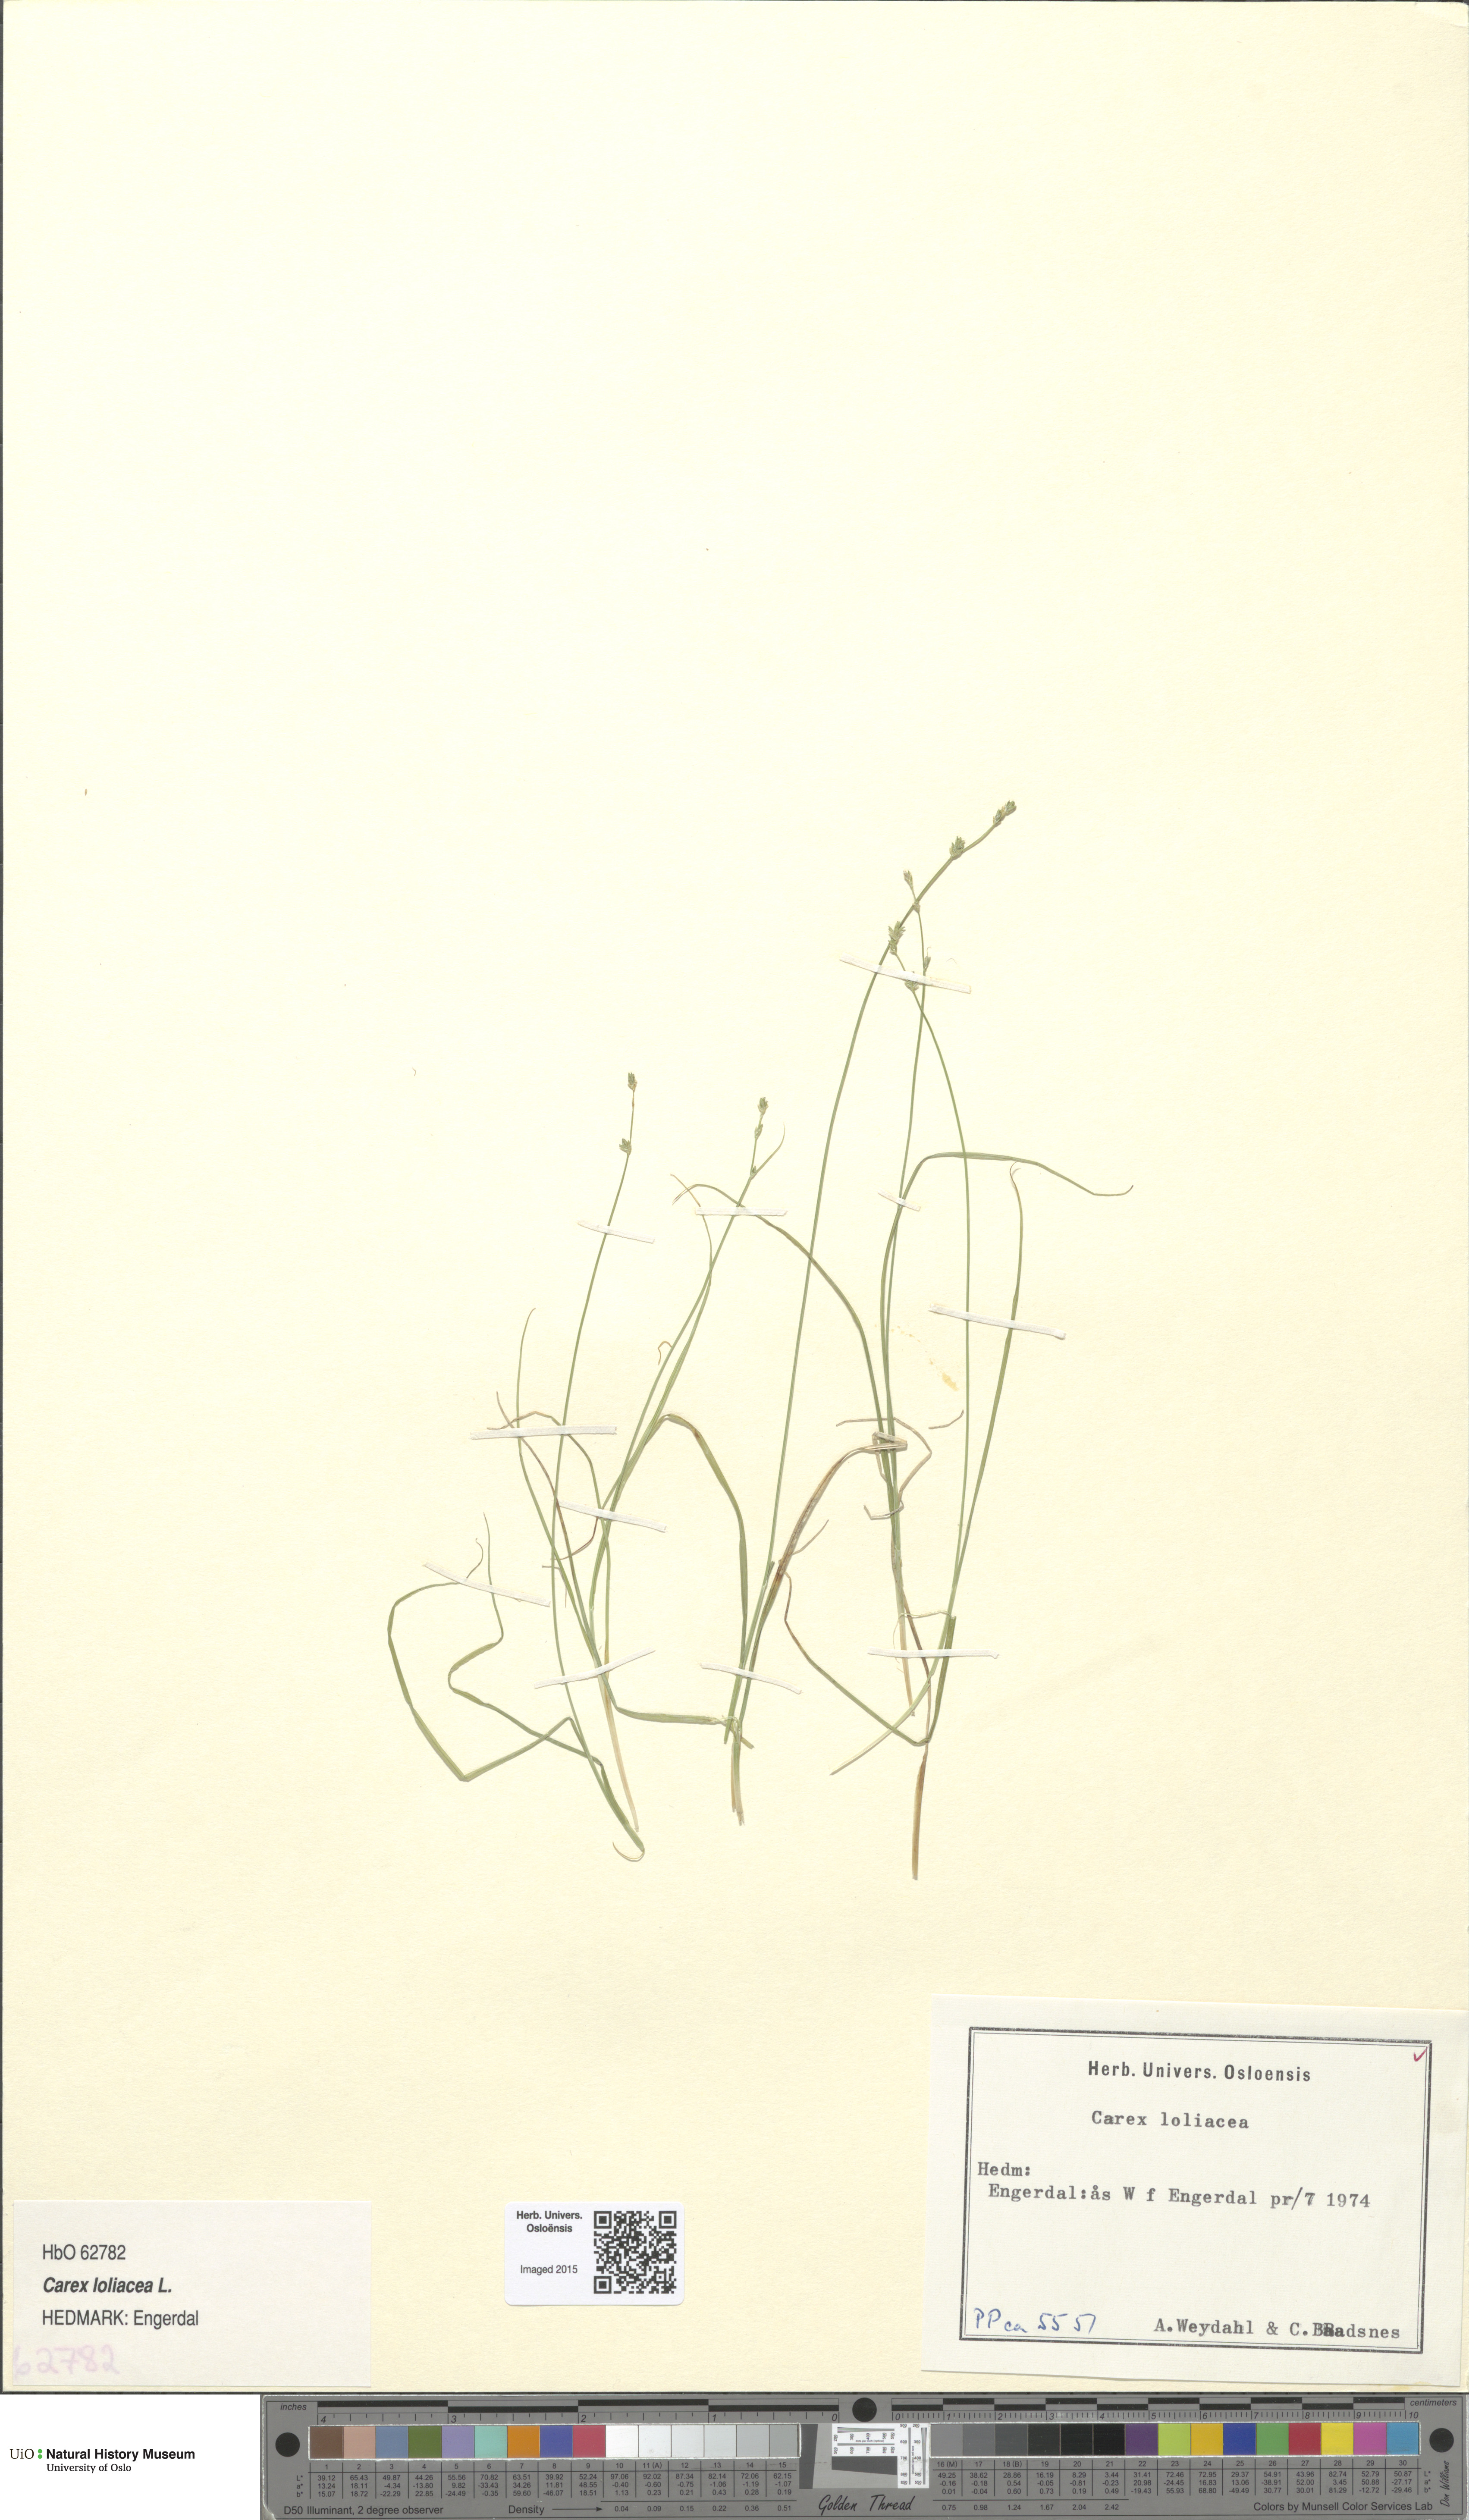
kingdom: Plantae
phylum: Tracheophyta
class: Liliopsida
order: Poales
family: Cyperaceae
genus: Carex
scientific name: Carex loliacea
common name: Ryegrass sedge
